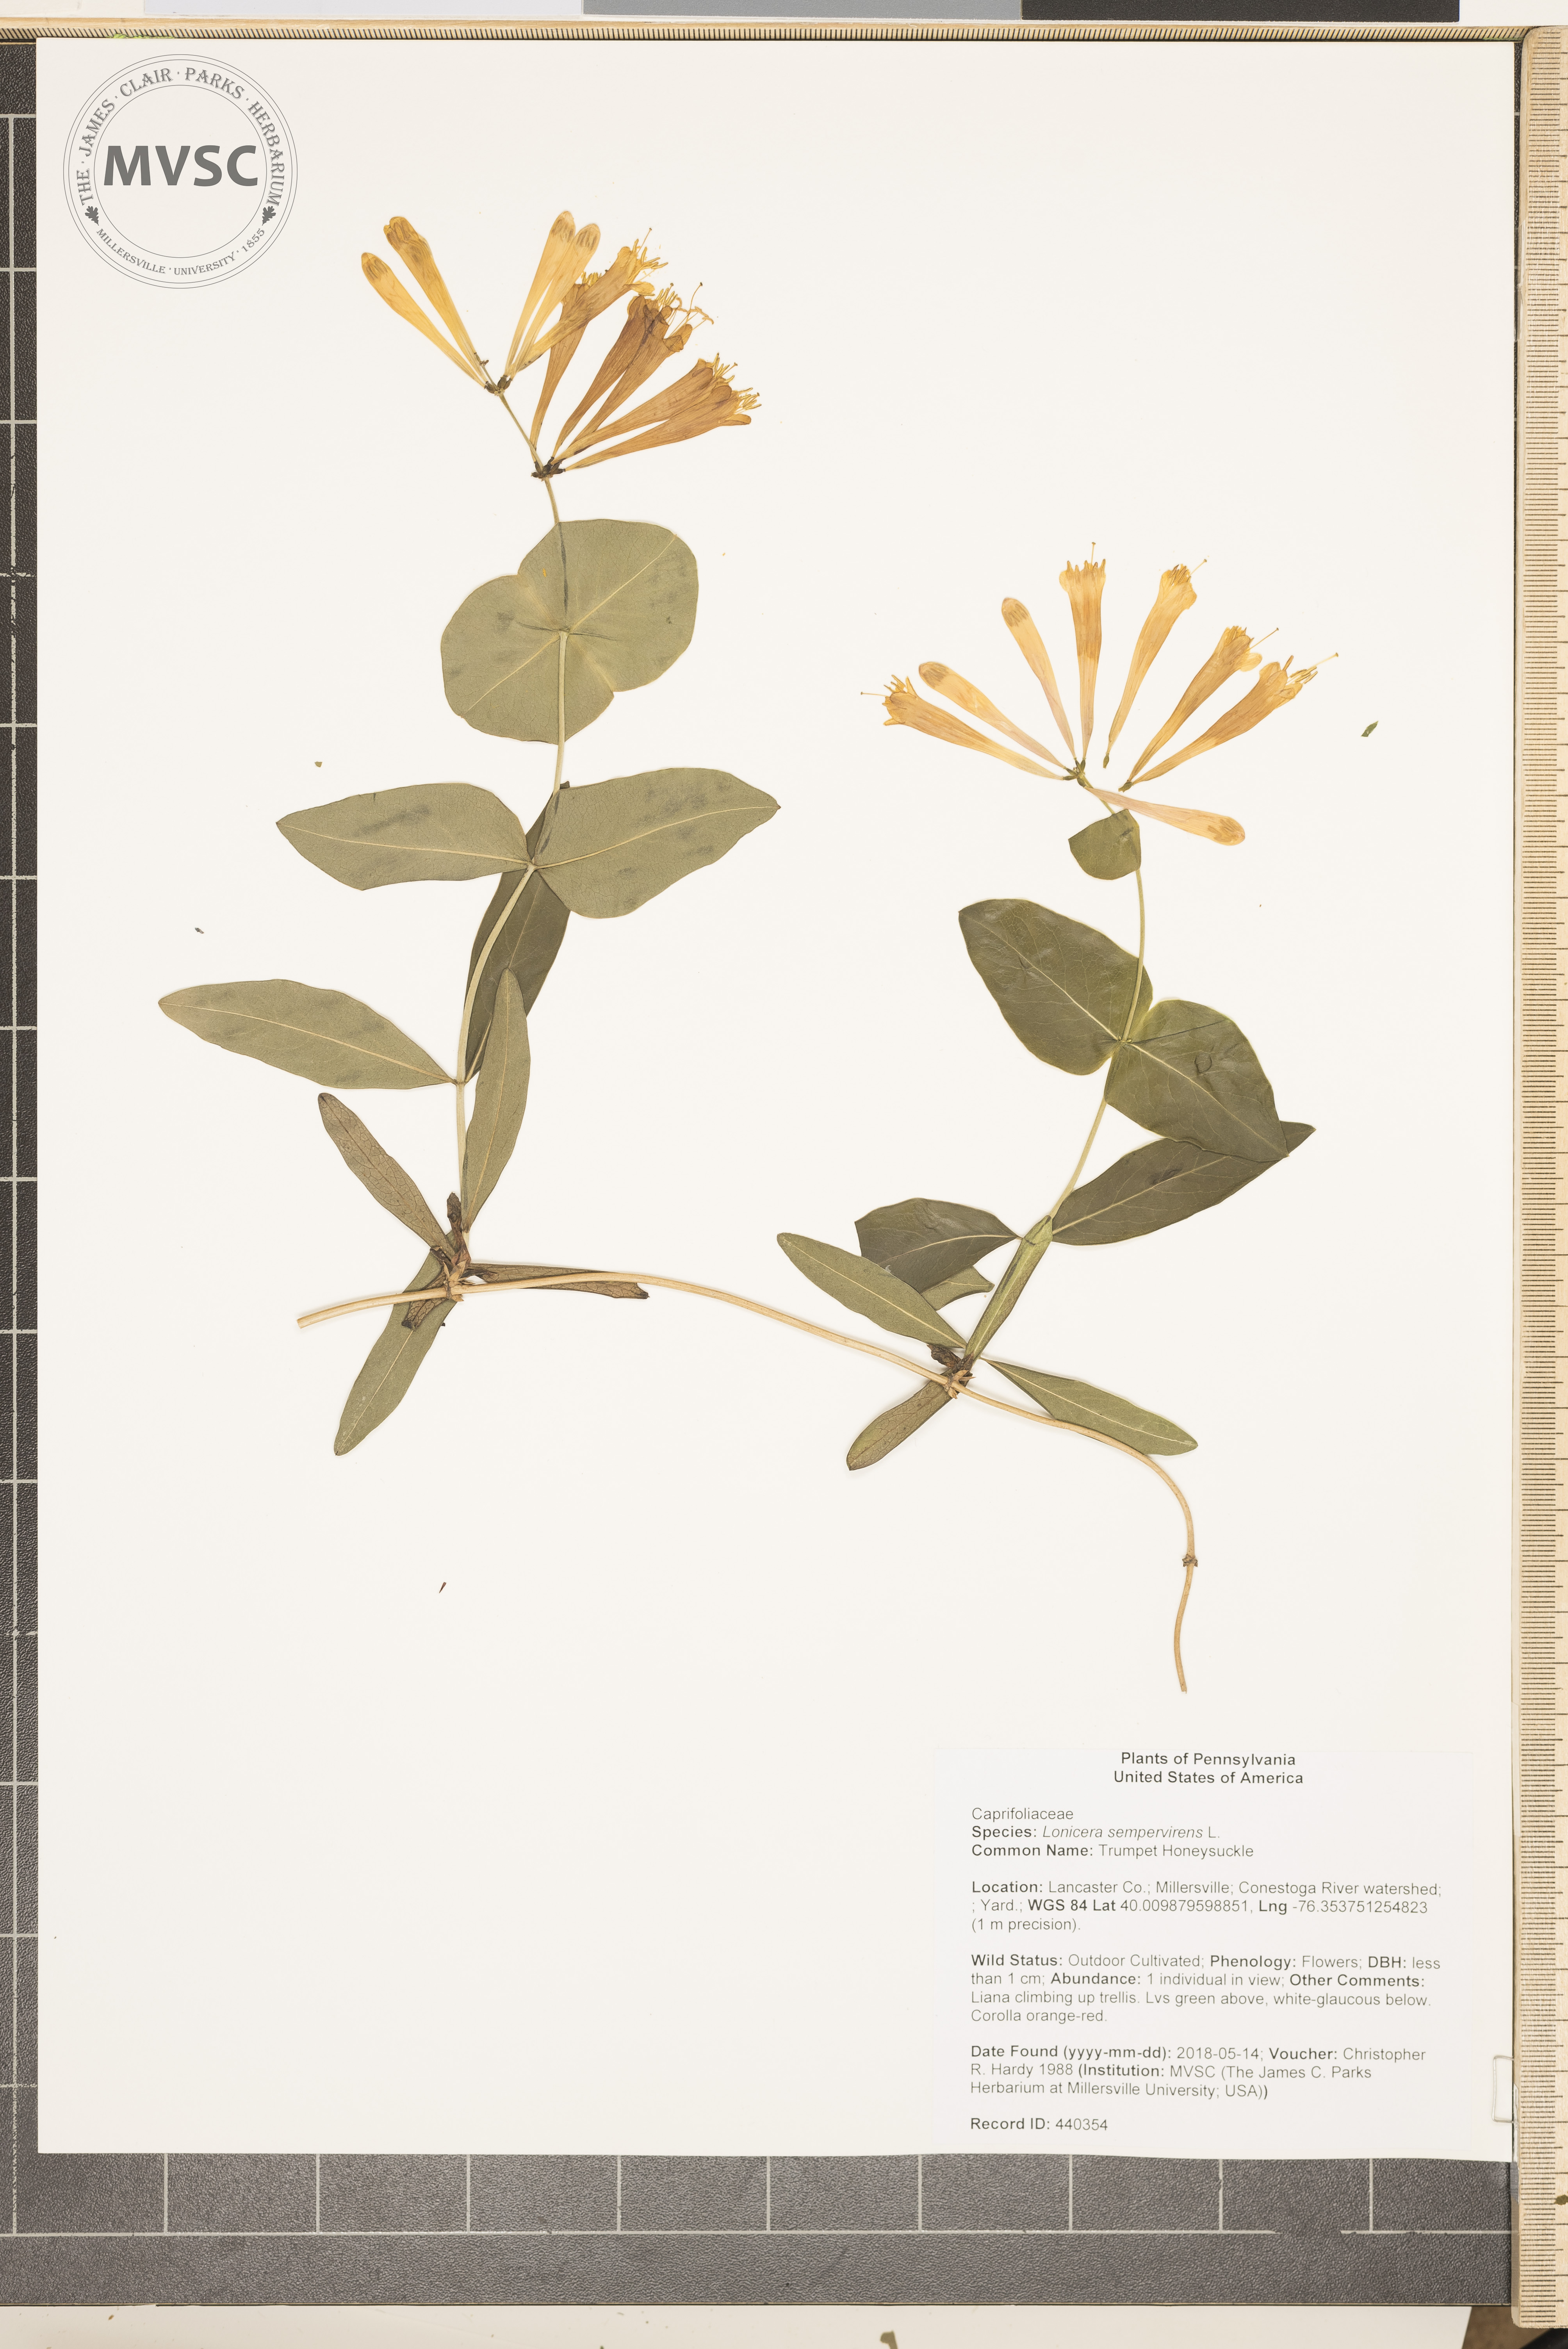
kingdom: Plantae
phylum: Tracheophyta
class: Magnoliopsida
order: Dipsacales
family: Caprifoliaceae
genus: Lonicera
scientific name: Lonicera sempervirens
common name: Trumpet Honeysuckle
